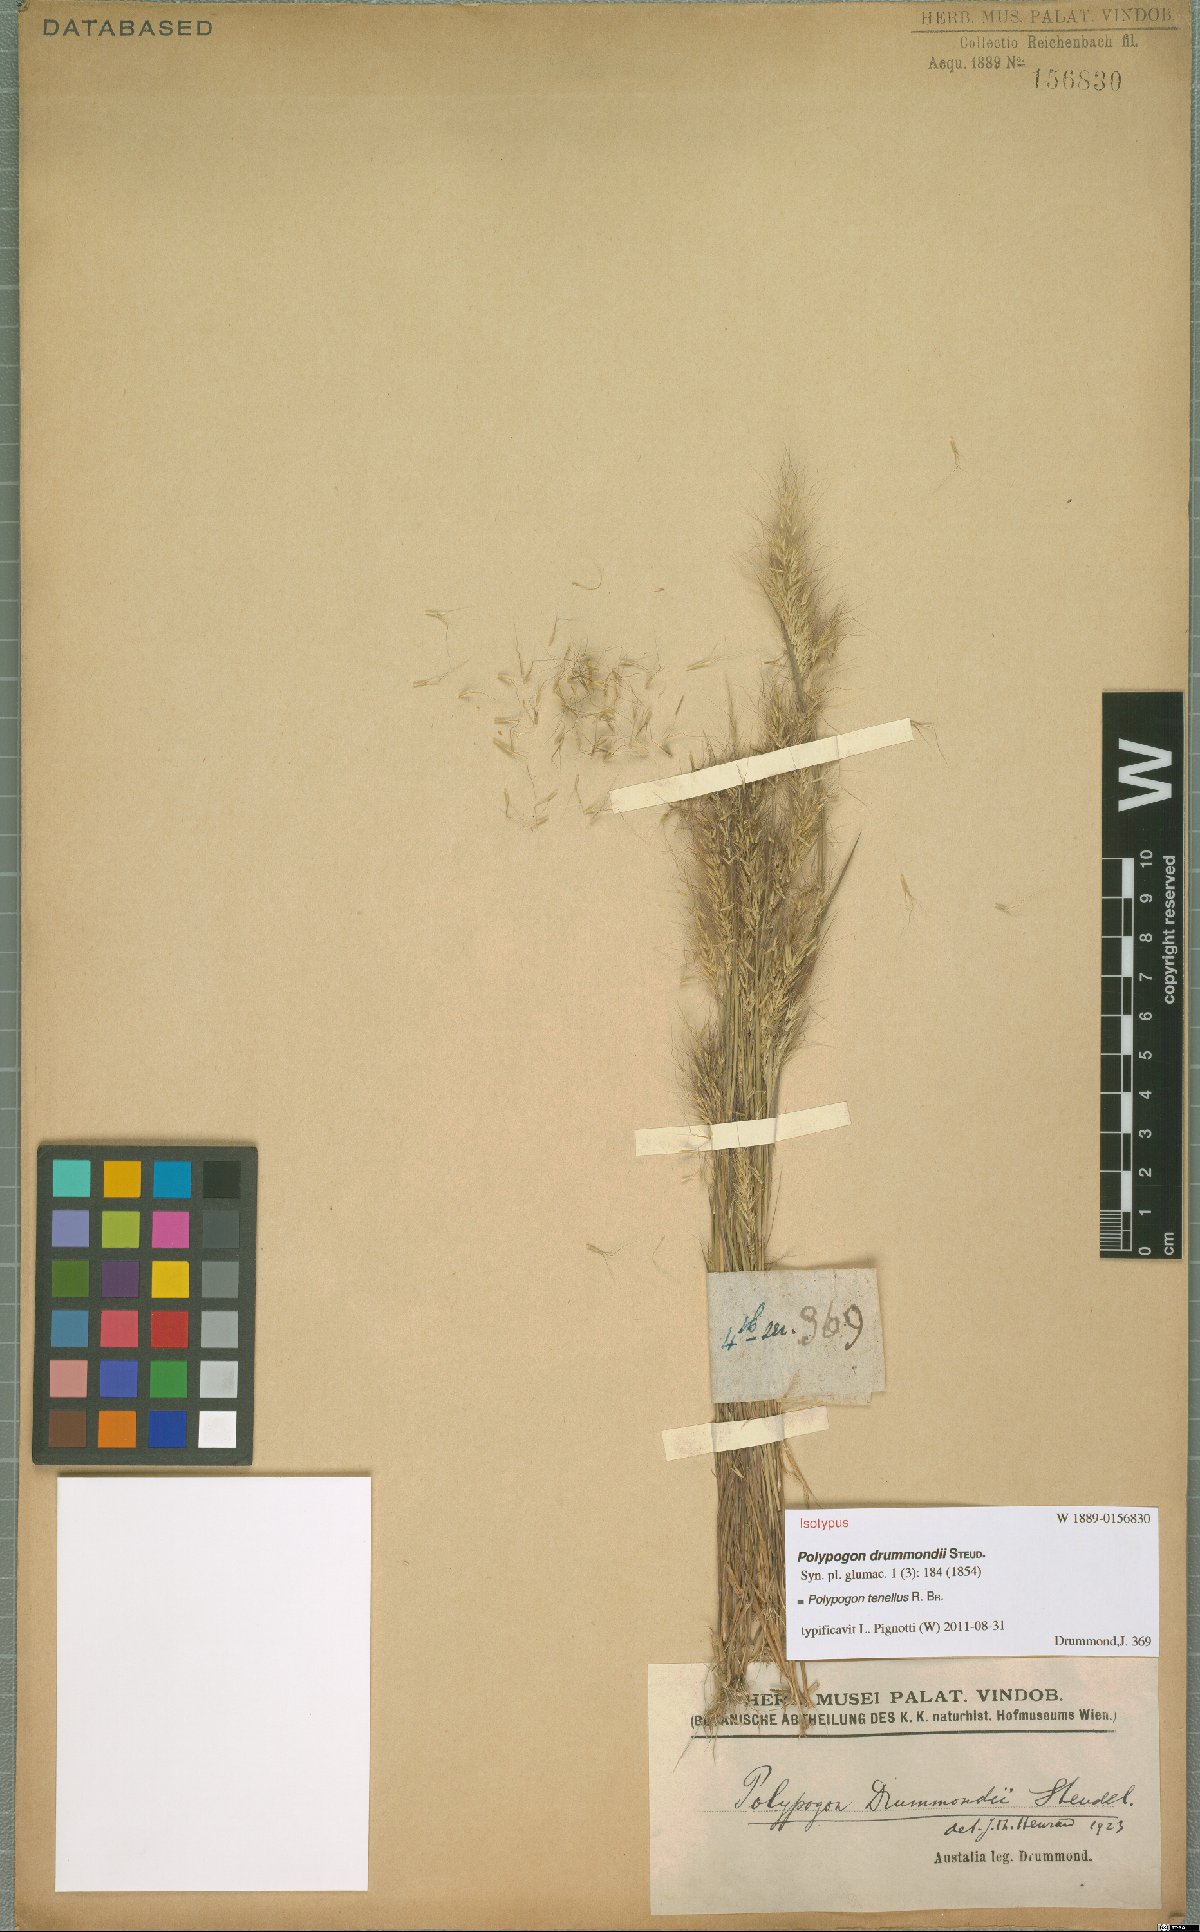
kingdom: Plantae
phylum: Tracheophyta
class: Liliopsida
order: Poales
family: Poaceae
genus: Polypogon
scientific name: Polypogon tenellus
